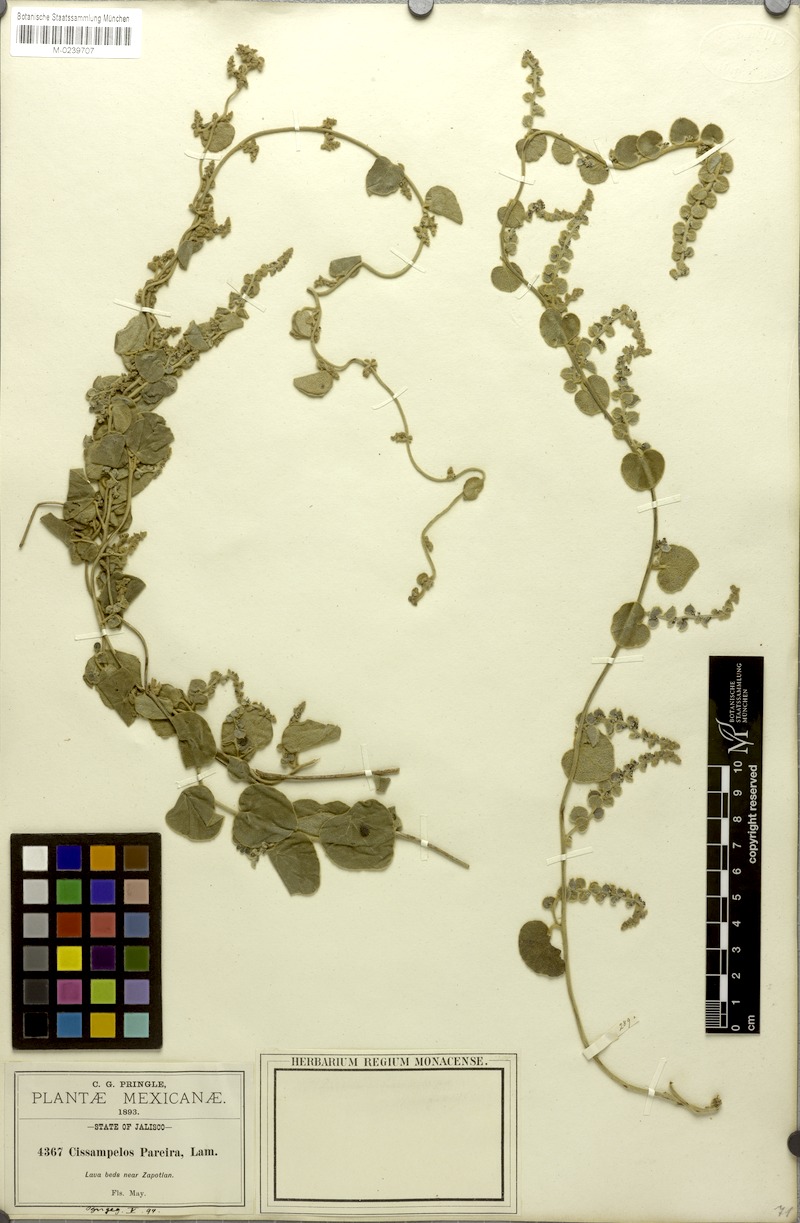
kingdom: Plantae
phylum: Tracheophyta
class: Magnoliopsida
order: Ranunculales
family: Menispermaceae
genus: Cissampelos
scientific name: Cissampelos pareira
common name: Velvetleaf
